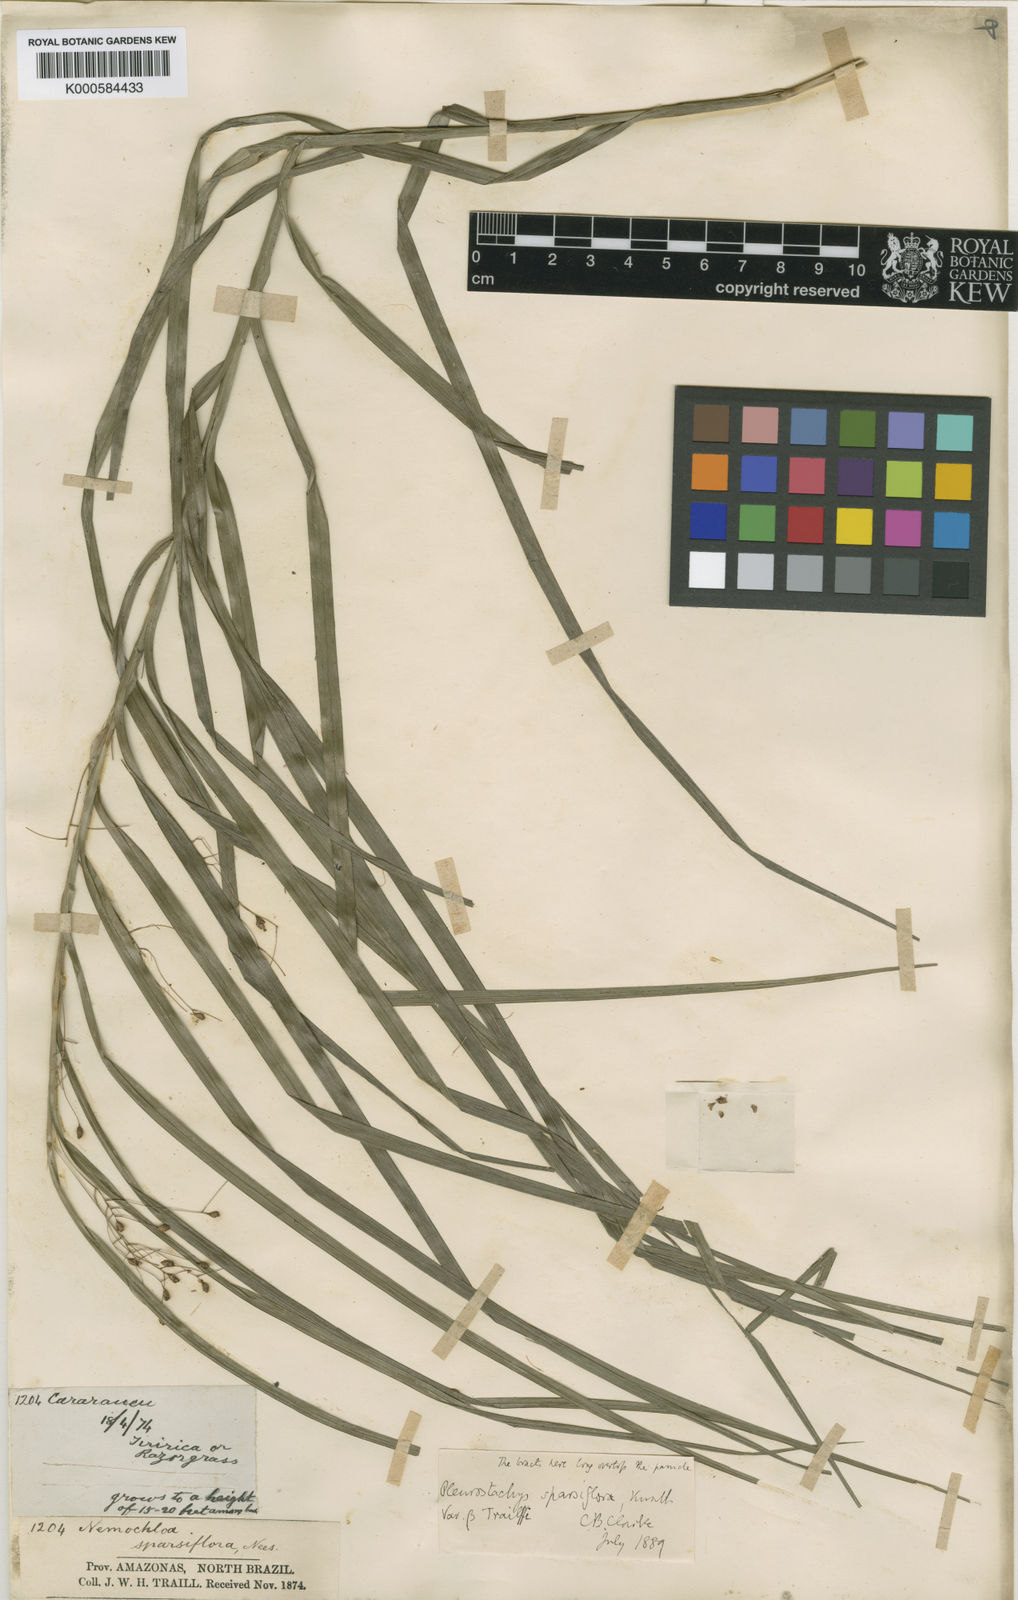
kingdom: Plantae
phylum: Tracheophyta
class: Liliopsida
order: Poales
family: Cyperaceae
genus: Rhynchospora
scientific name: Rhynchospora sparsiflora
